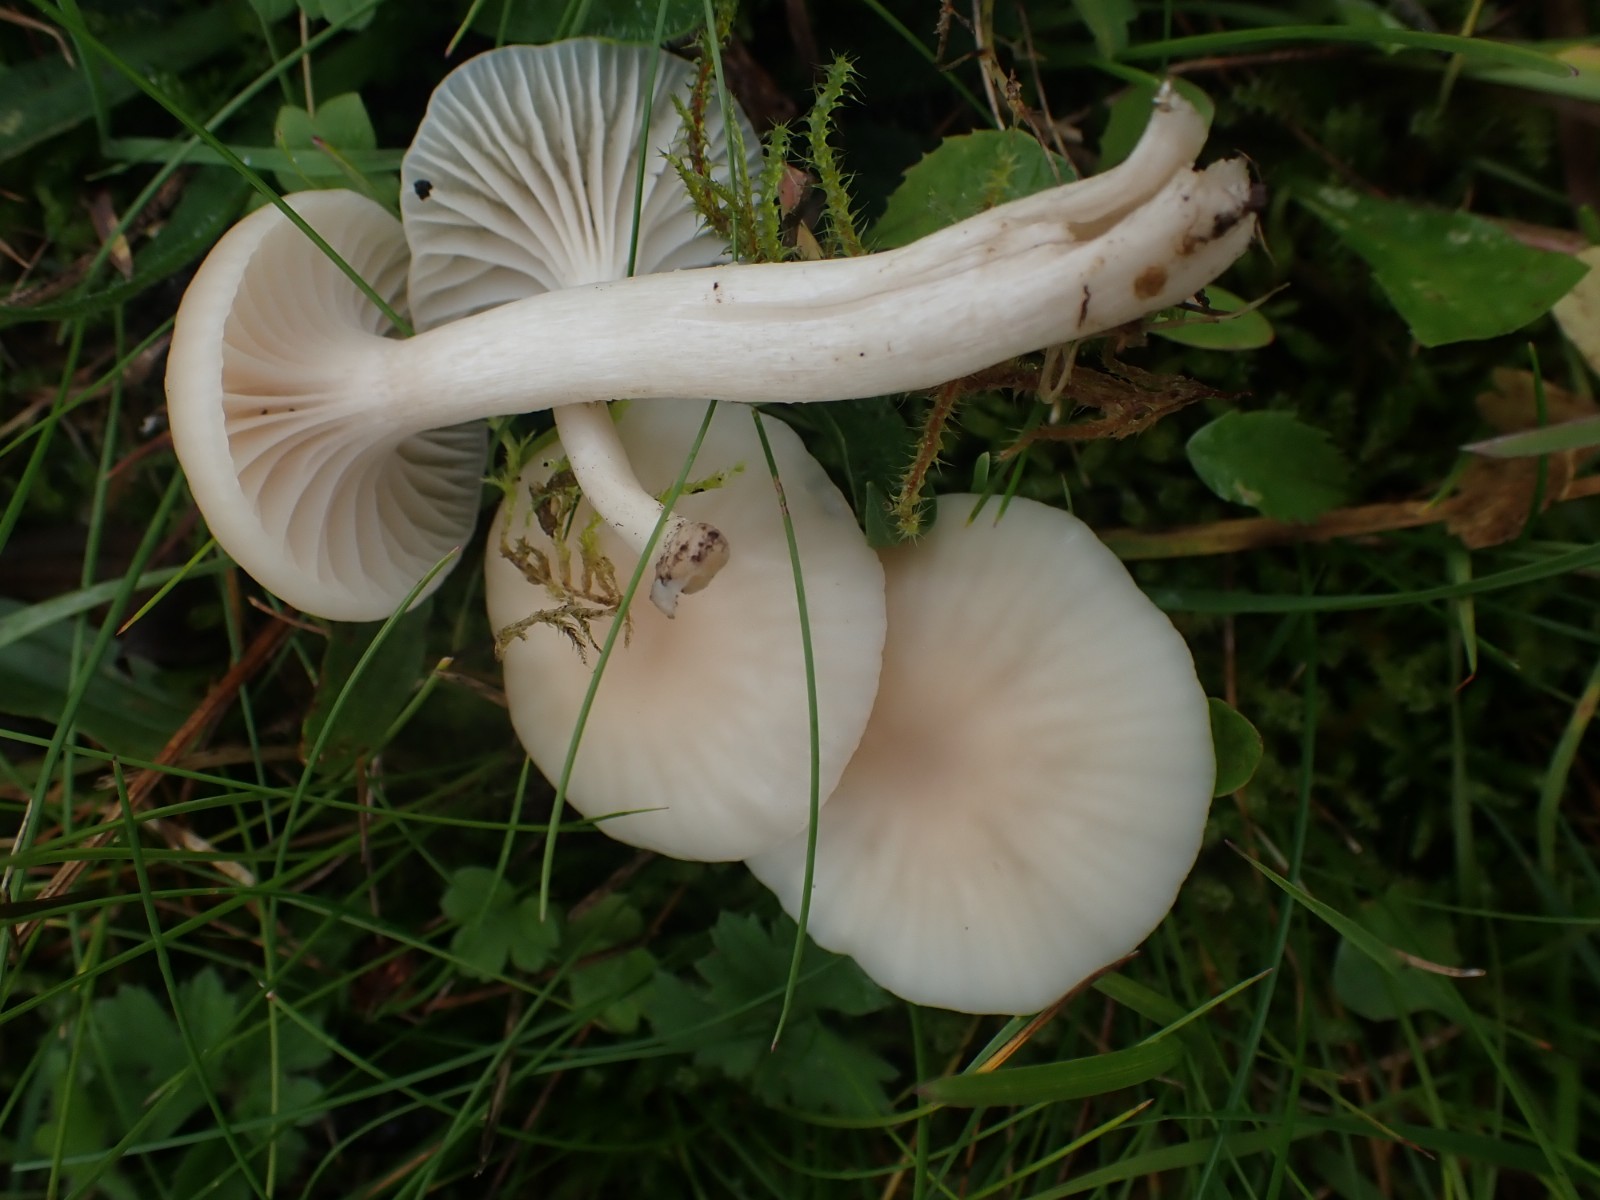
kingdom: Fungi
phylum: Basidiomycota
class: Agaricomycetes
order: Agaricales
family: Hygrophoraceae
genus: Cuphophyllus
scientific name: Cuphophyllus virgineus
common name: isabella-vokshat
